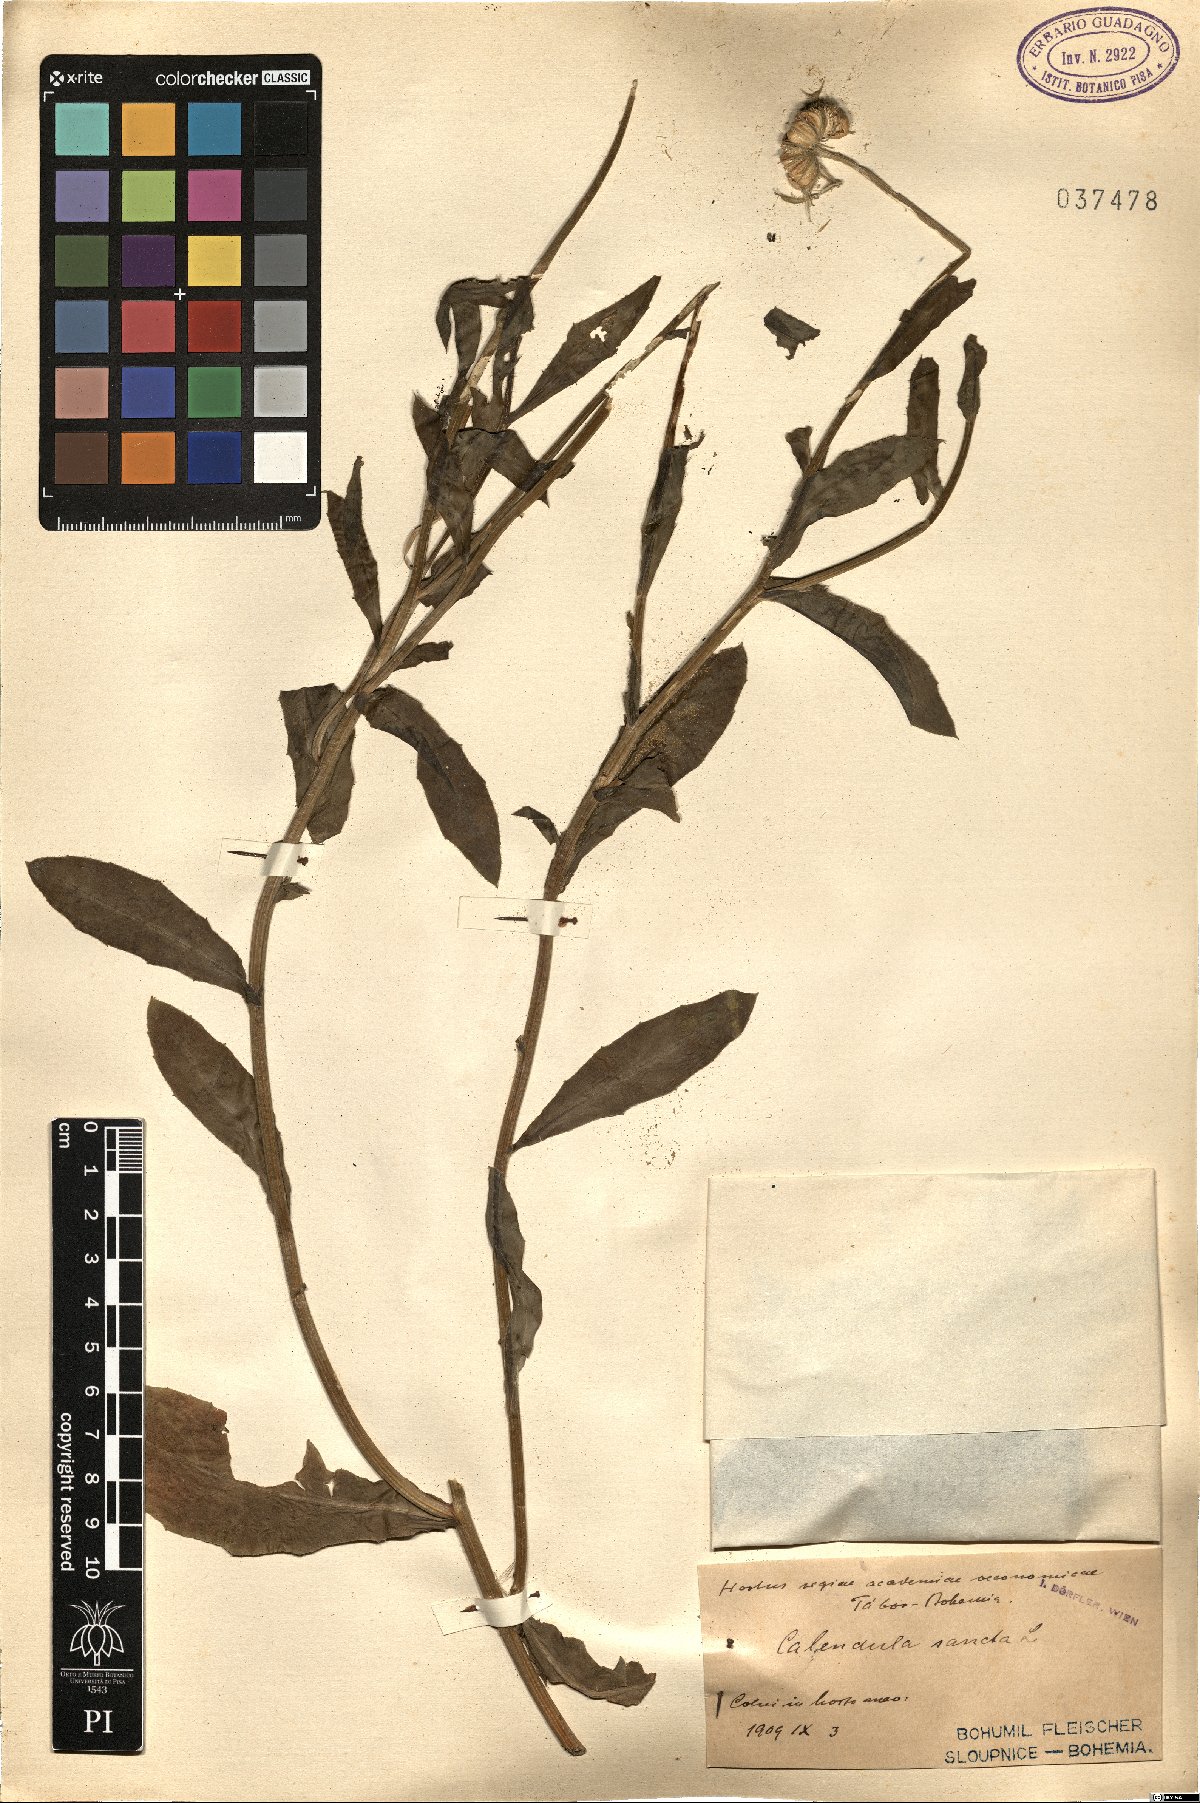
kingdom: Plantae
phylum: Tracheophyta
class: Magnoliopsida
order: Asterales
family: Asteraceae
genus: Calendula
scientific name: Calendula arvensis
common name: Field marigold
